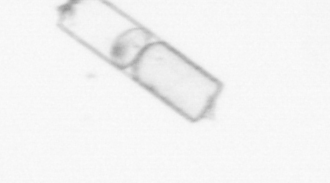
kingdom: Chromista
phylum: Ochrophyta
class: Bacillariophyceae
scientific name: Bacillariophyceae
